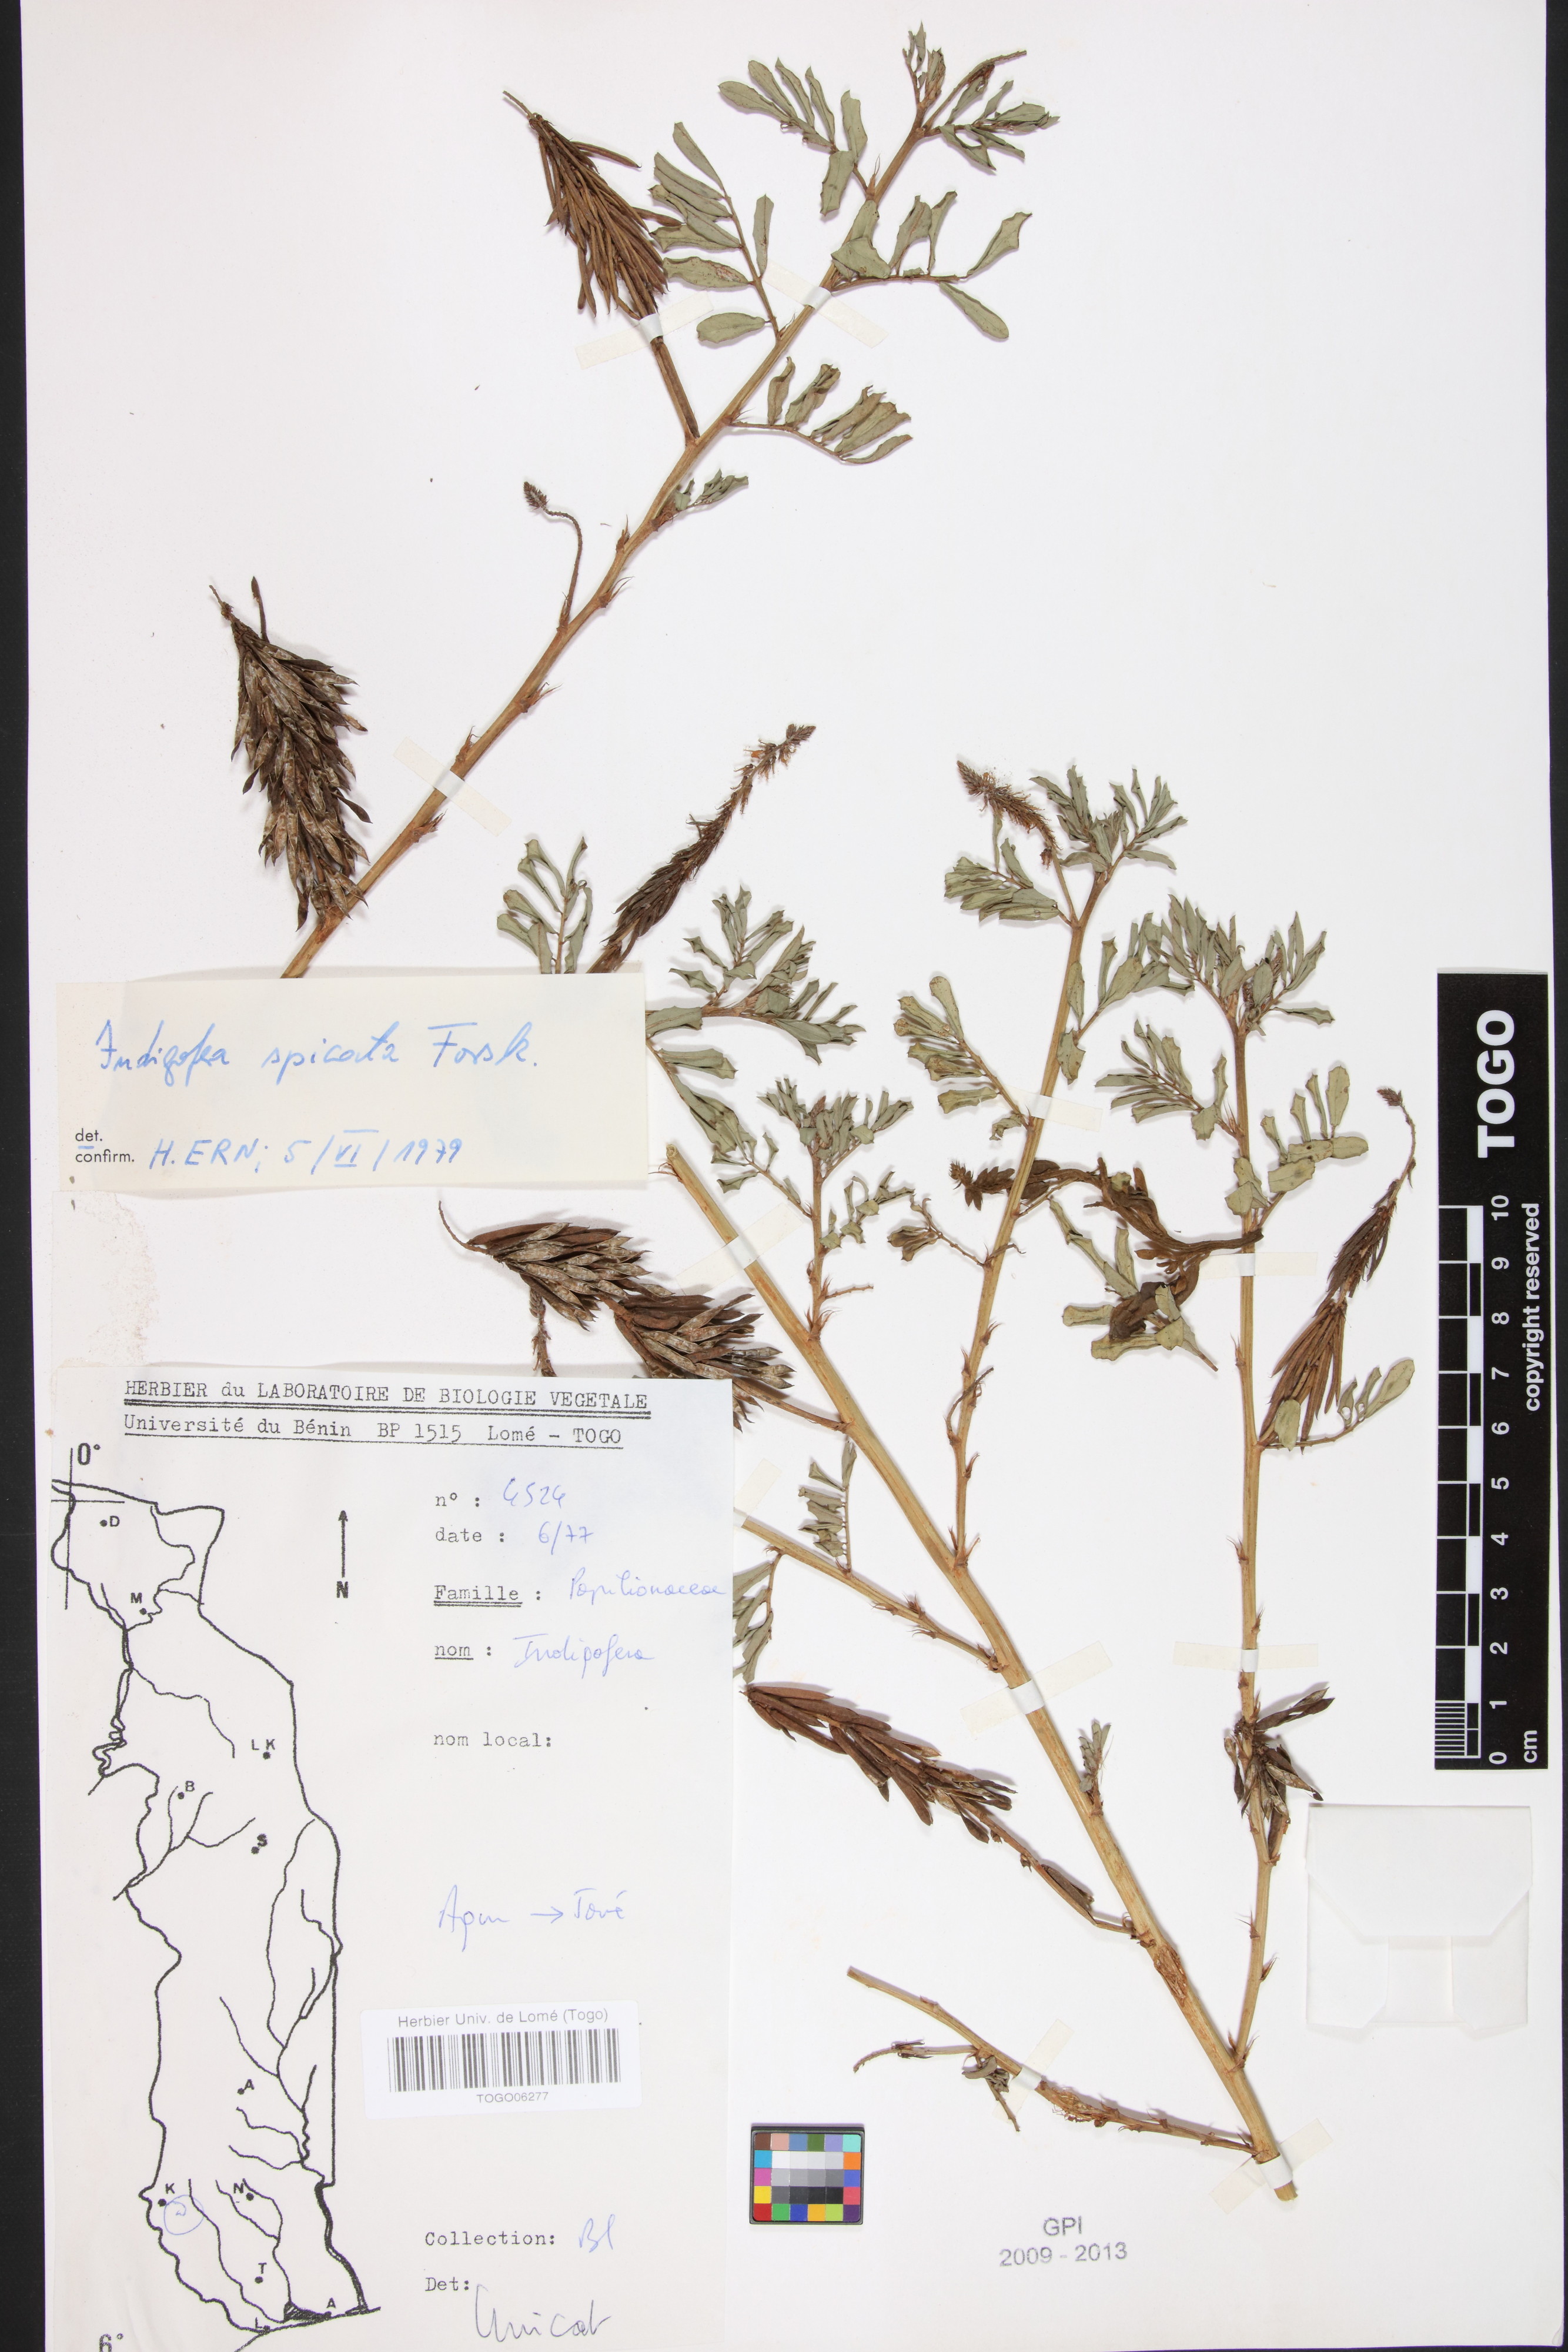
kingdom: Plantae
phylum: Tracheophyta
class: Magnoliopsida
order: Fabales
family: Fabaceae
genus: Indigofera
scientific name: Indigofera spicata
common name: Creeping indigo
